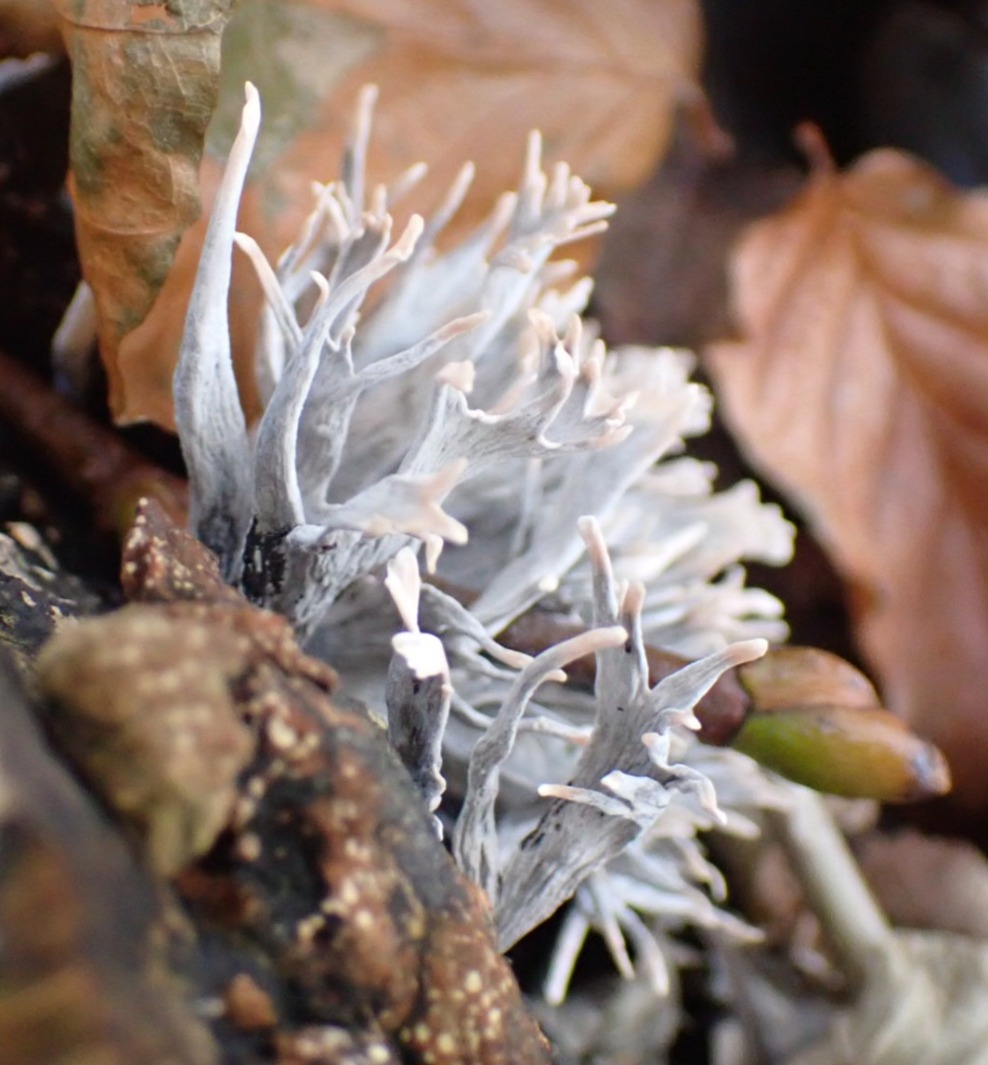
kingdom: Fungi
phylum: Ascomycota
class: Sordariomycetes
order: Xylariales
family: Xylariaceae
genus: Xylaria
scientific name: Xylaria hypoxylon
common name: Grenet stødsvamp
